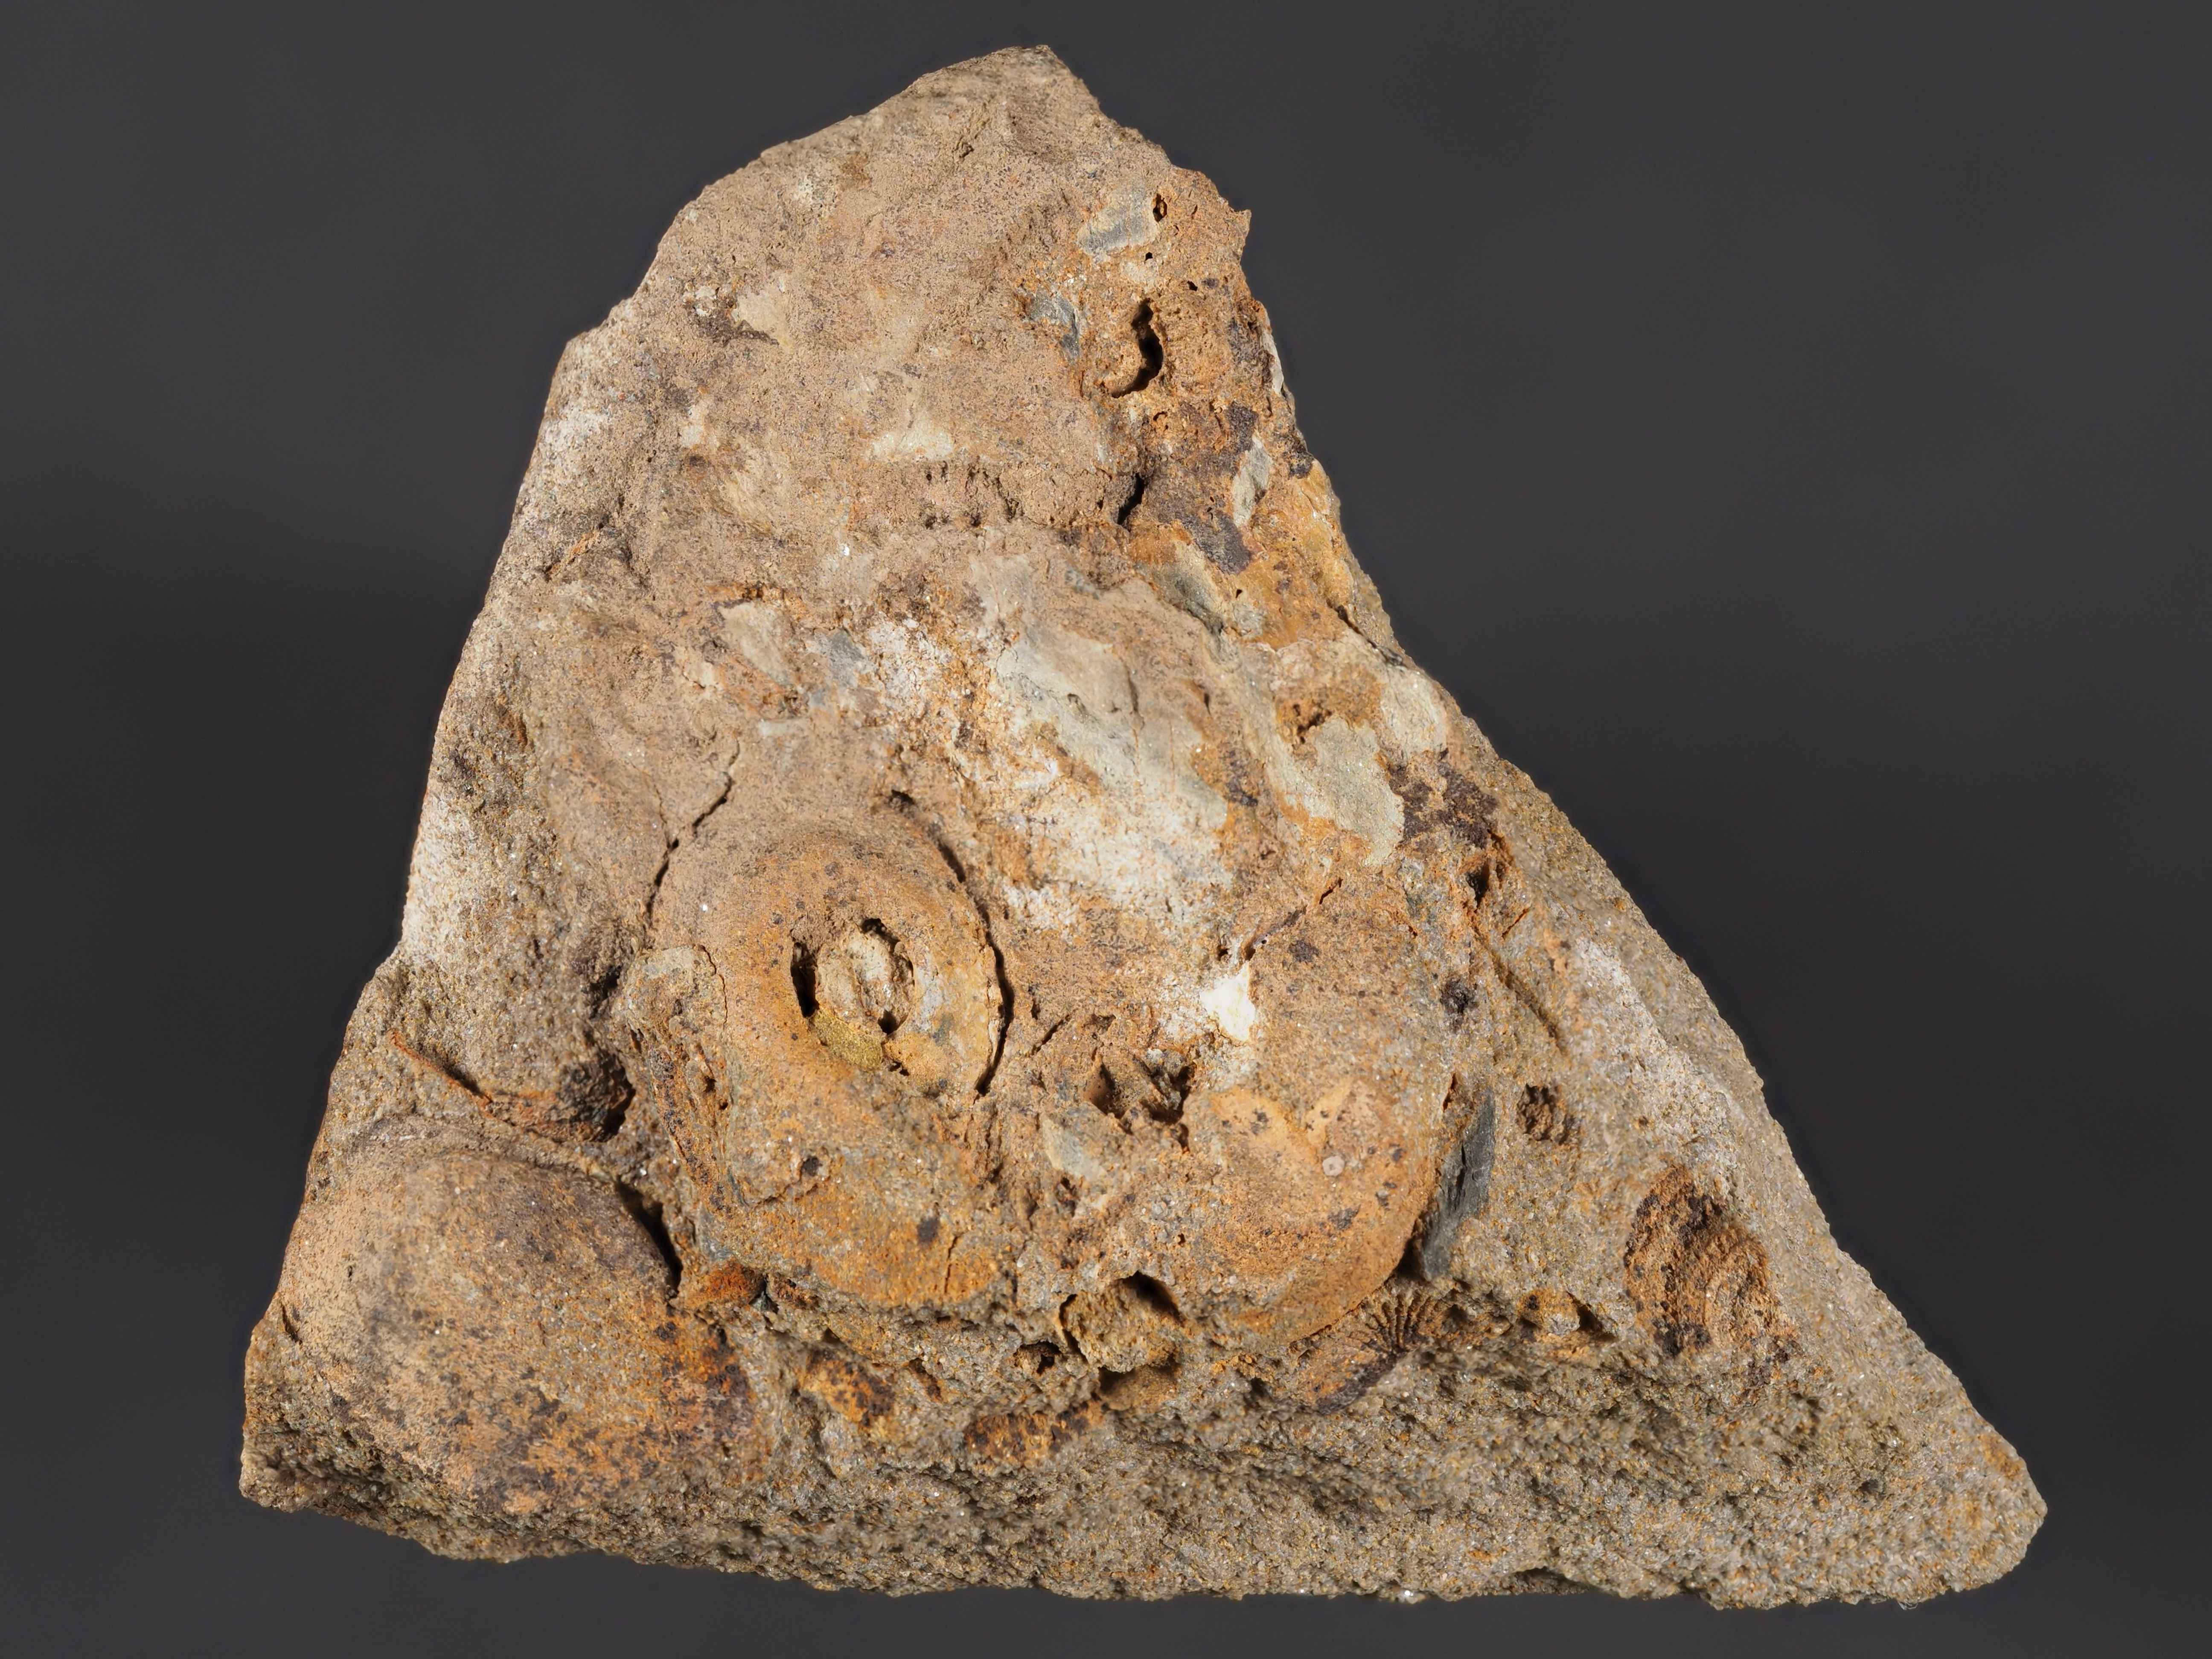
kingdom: Animalia
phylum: Mollusca
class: Gastropoda
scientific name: Gastropoda
